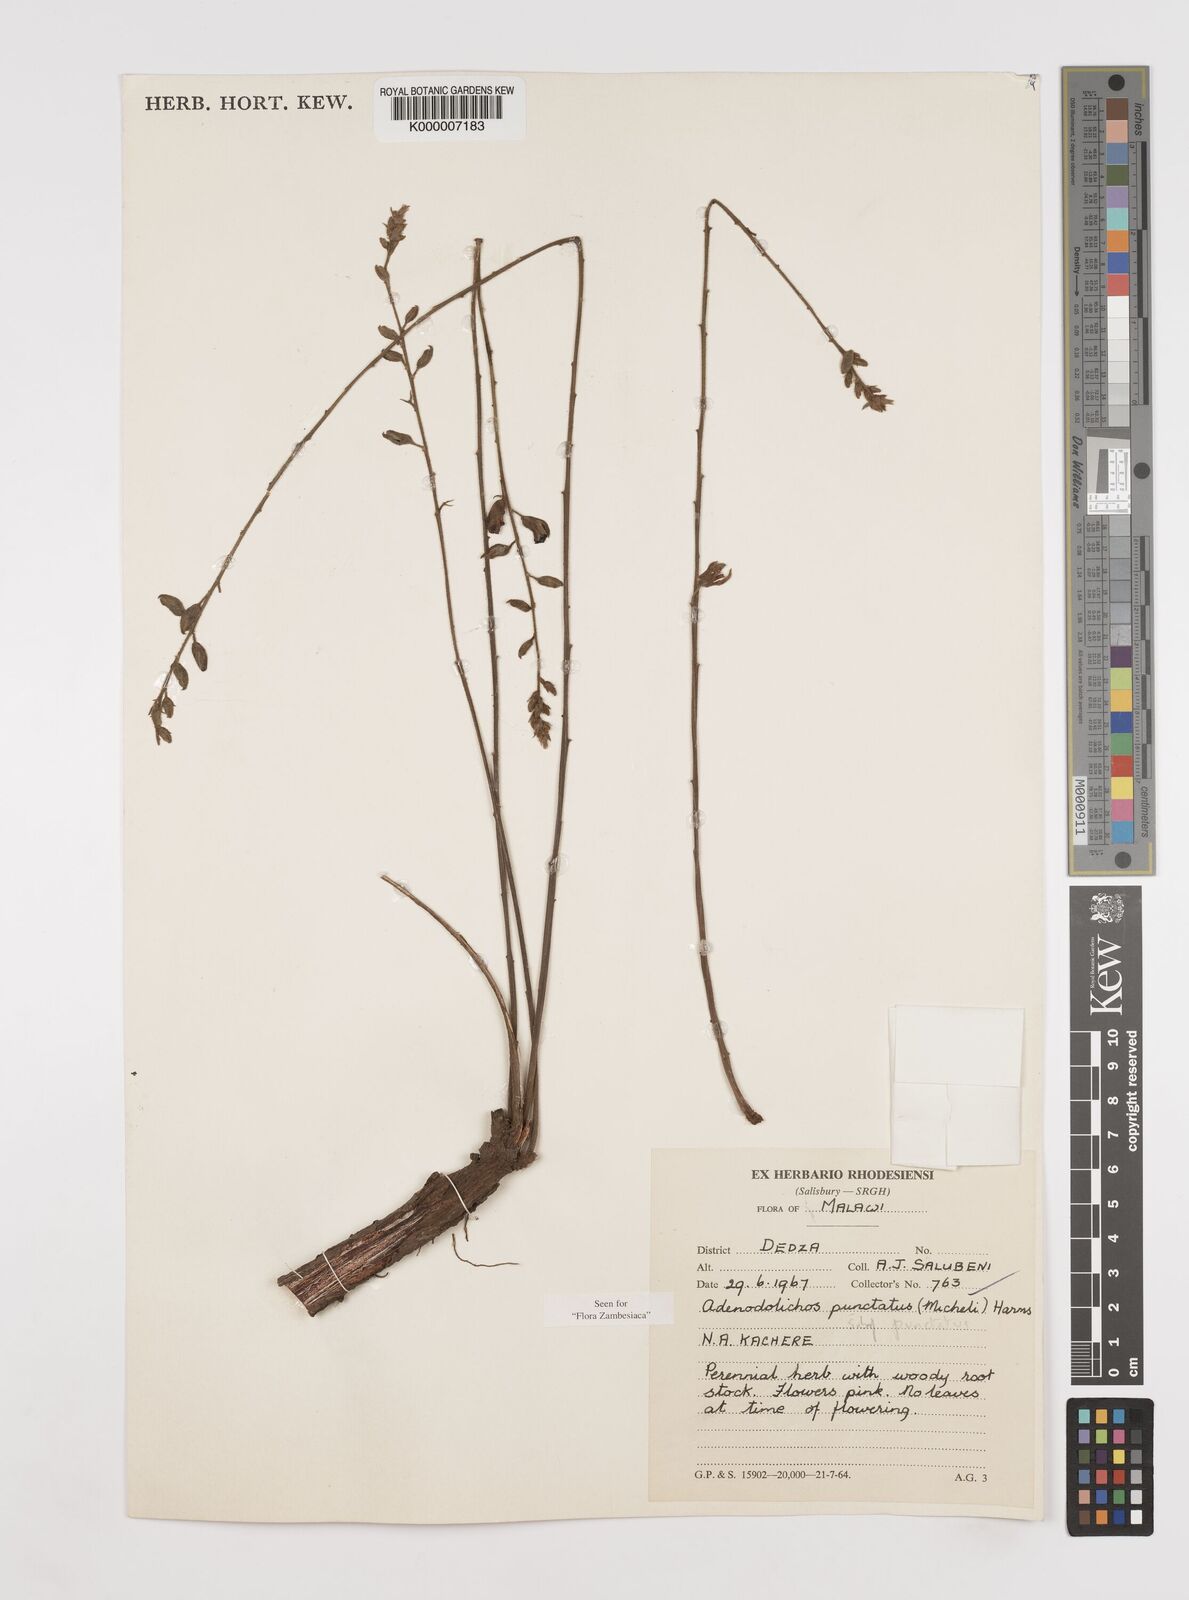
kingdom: Plantae
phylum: Tracheophyta
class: Magnoliopsida
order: Fabales
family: Fabaceae
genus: Adenodolichos
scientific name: Adenodolichos punctatus
